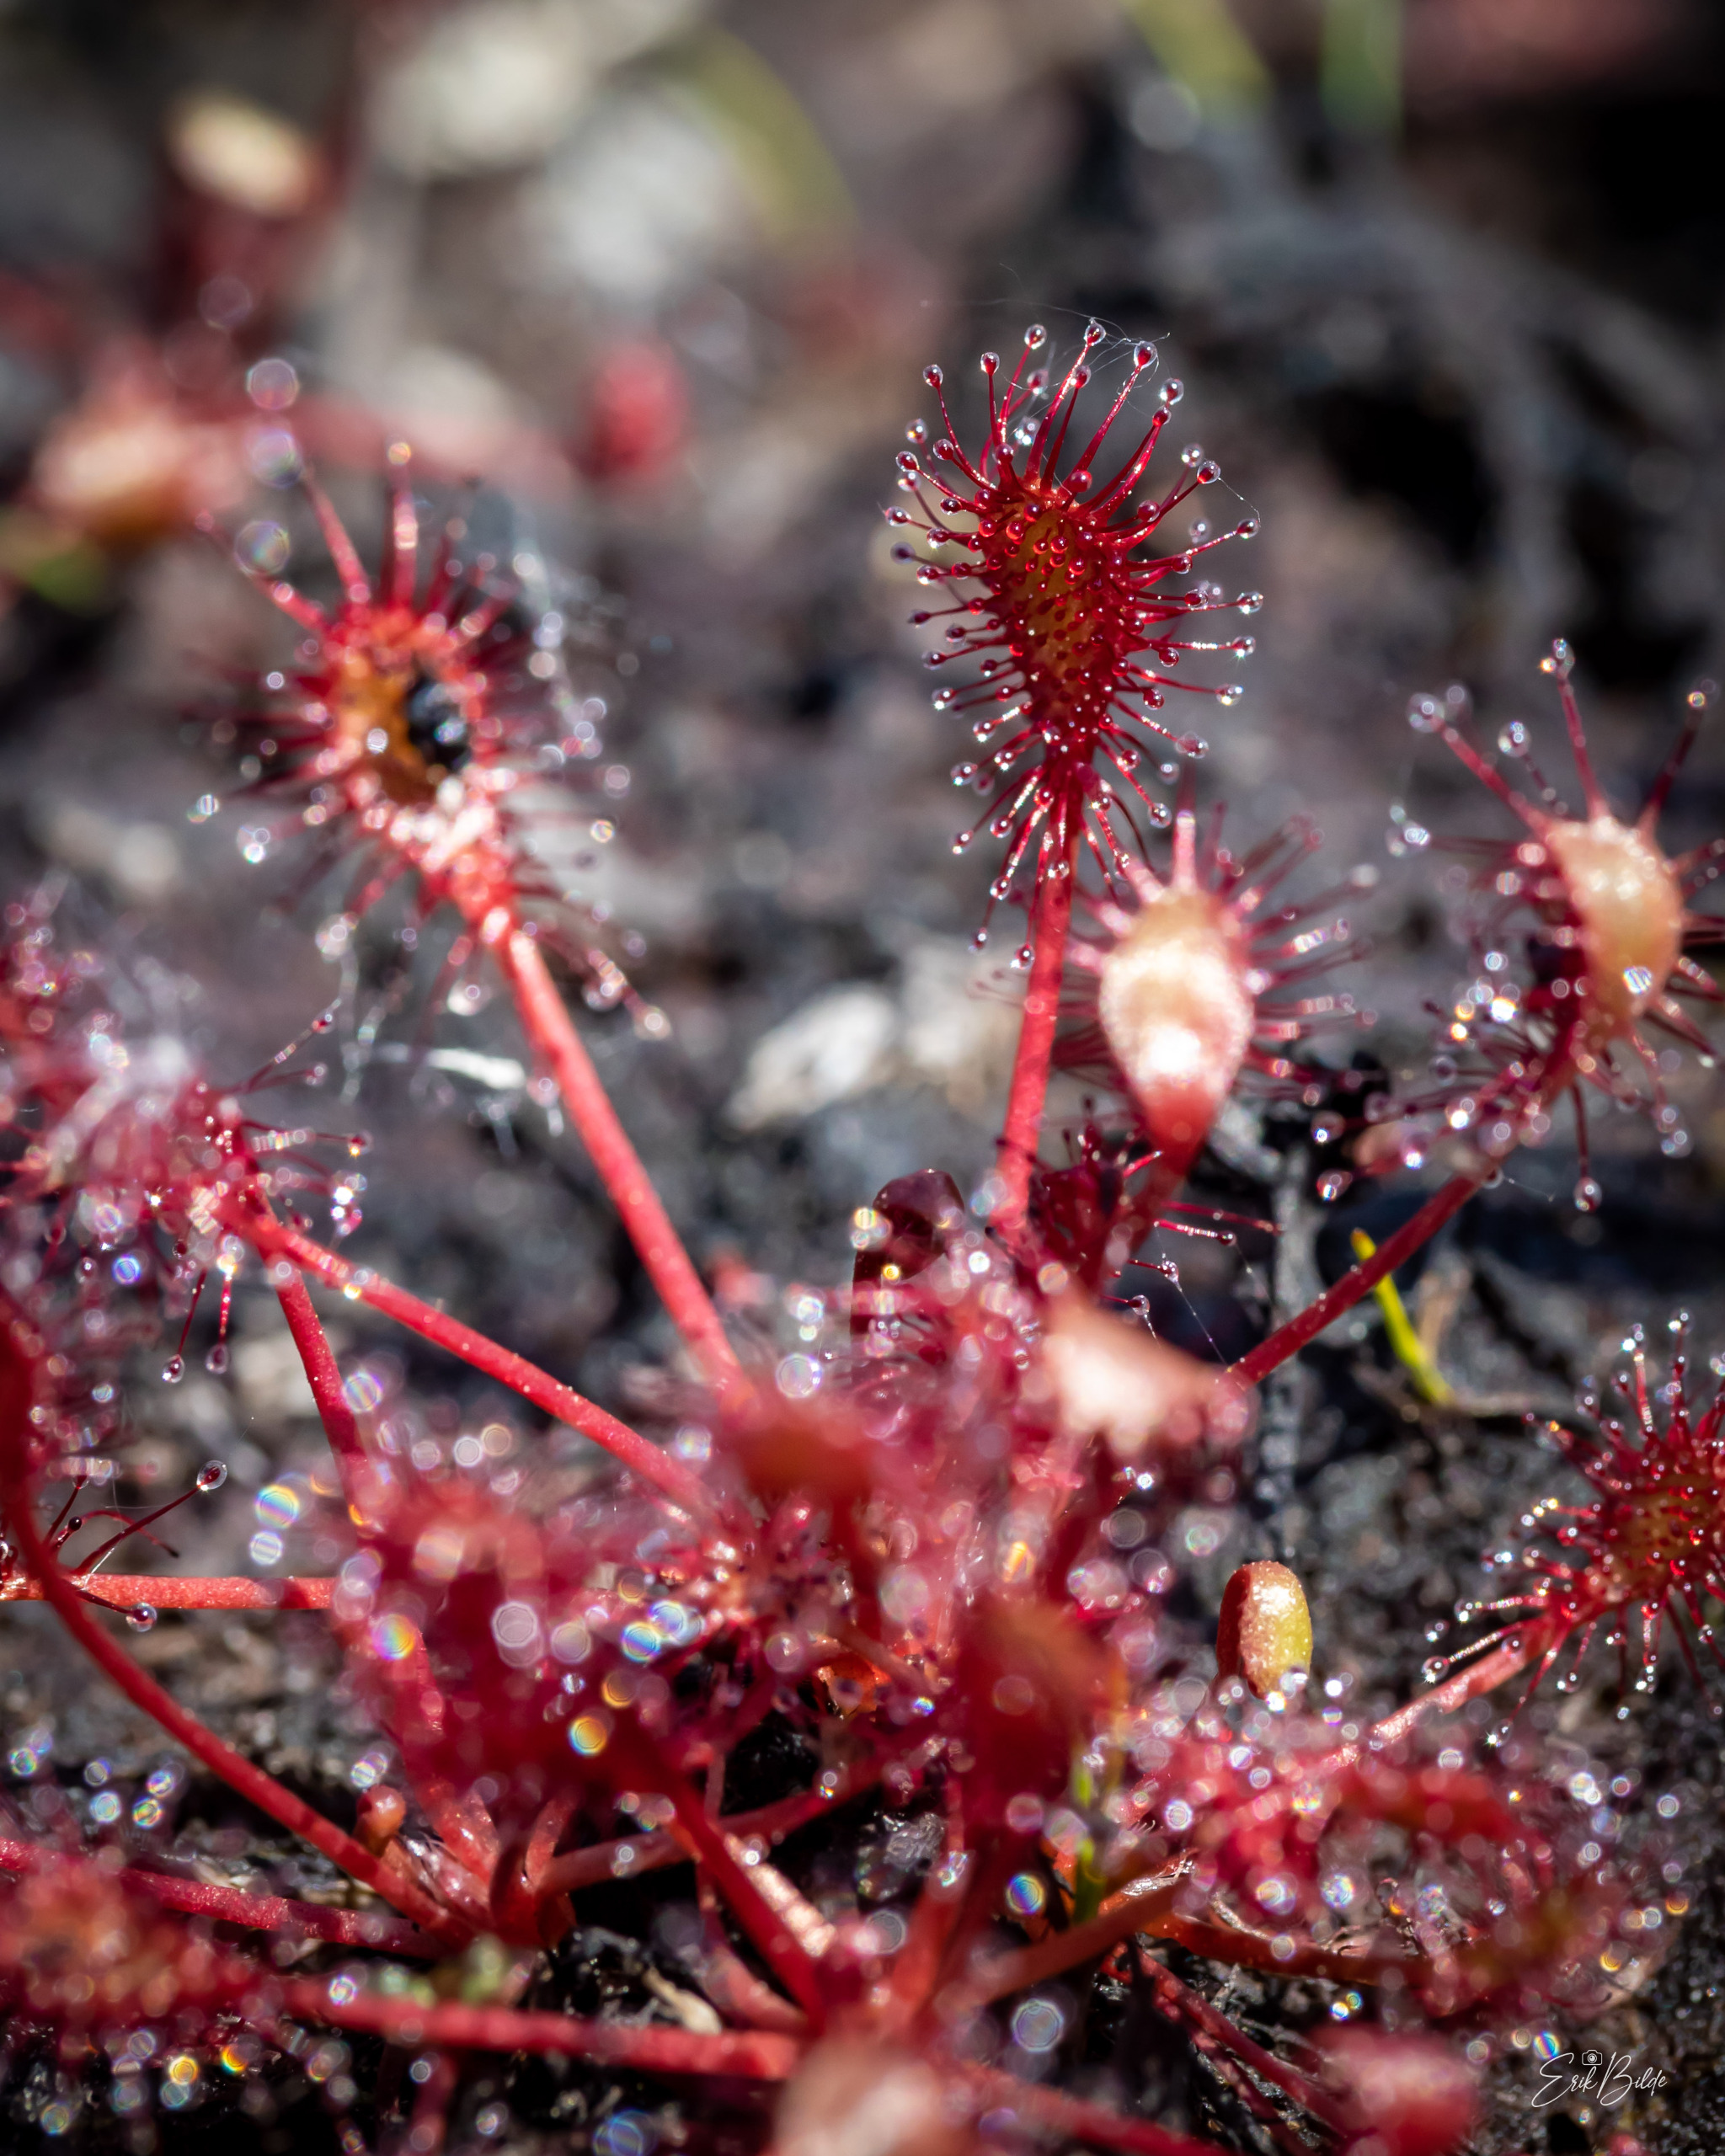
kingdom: Plantae
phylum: Tracheophyta
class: Magnoliopsida
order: Caryophyllales
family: Droseraceae
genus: Drosera
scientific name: Drosera intermedia
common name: Liden soldug
